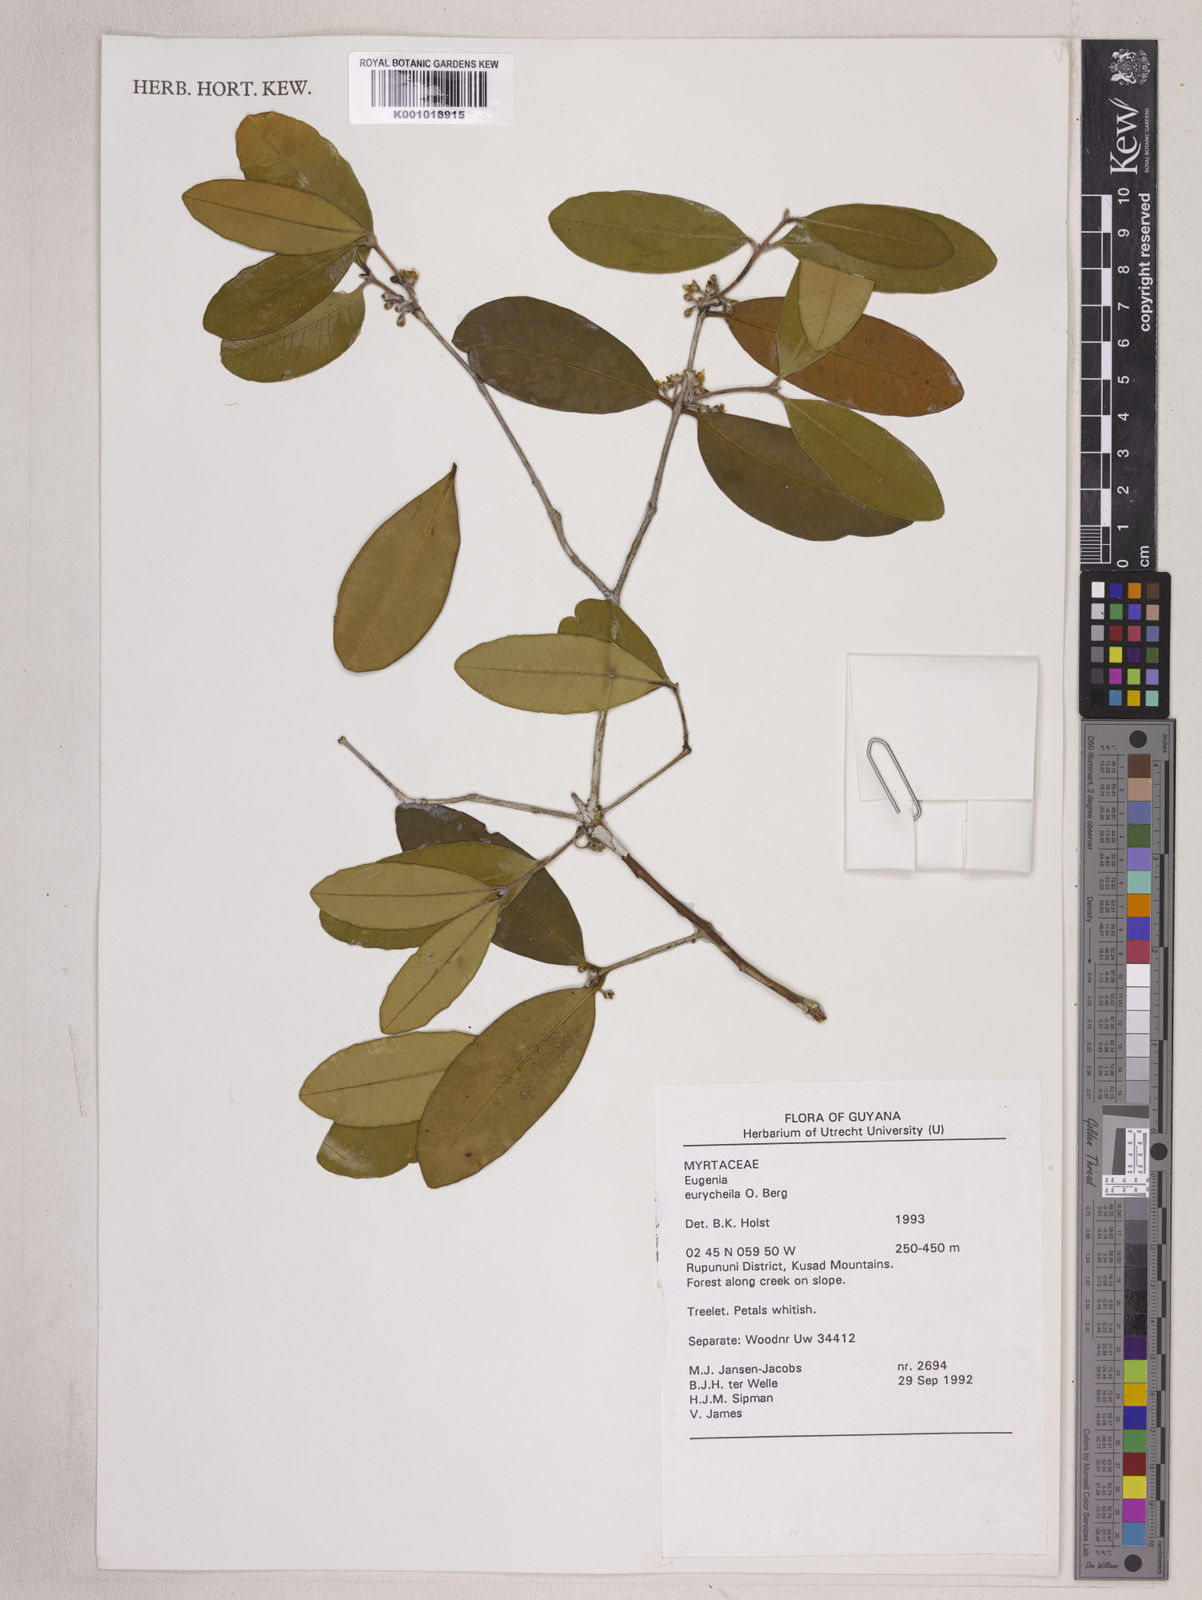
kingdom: Plantae
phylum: Tracheophyta
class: Magnoliopsida
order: Myrtales
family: Myrtaceae
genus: Eugenia
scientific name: Eugenia eurycheila
